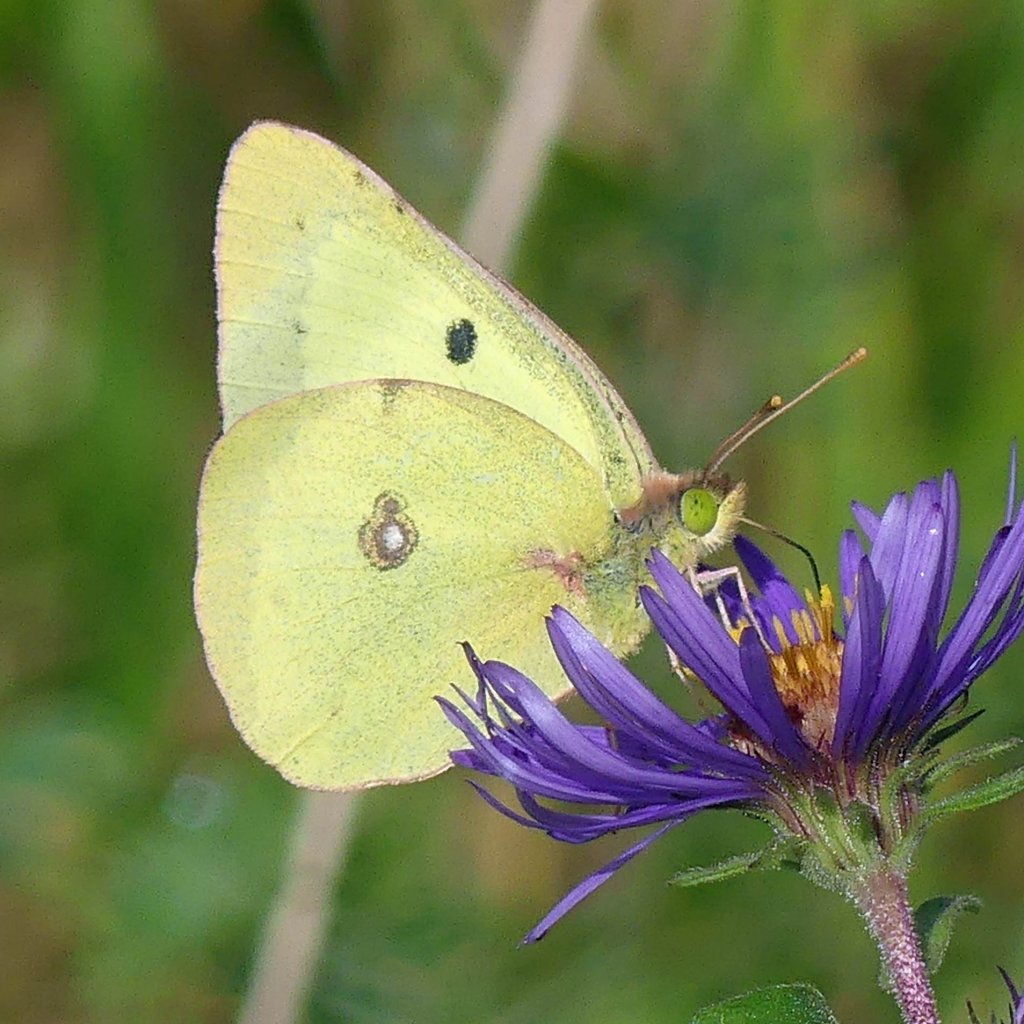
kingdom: Animalia
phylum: Arthropoda
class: Insecta
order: Lepidoptera
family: Pieridae
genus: Colias
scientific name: Colias philodice
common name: Clouded Sulphur
